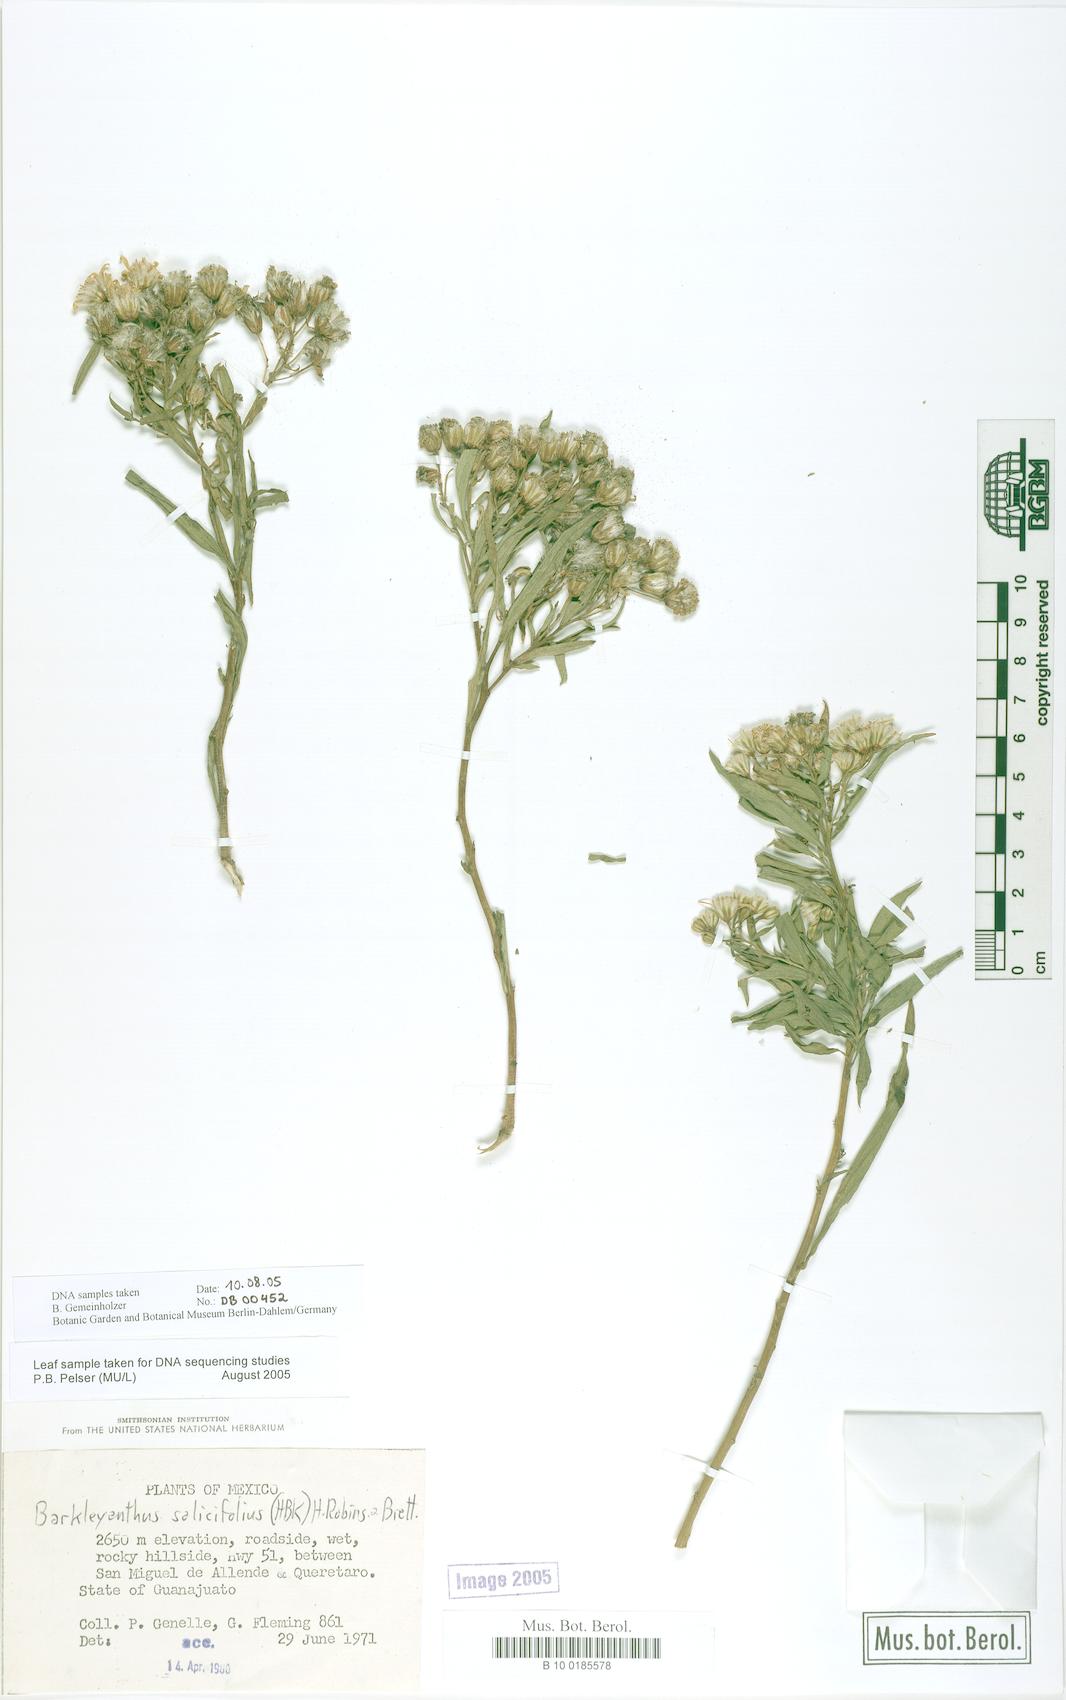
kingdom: Plantae
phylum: Tracheophyta
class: Magnoliopsida
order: Asterales
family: Asteraceae
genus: Barkleyanthus
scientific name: Barkleyanthus salicifolius
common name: Willow ragwort
